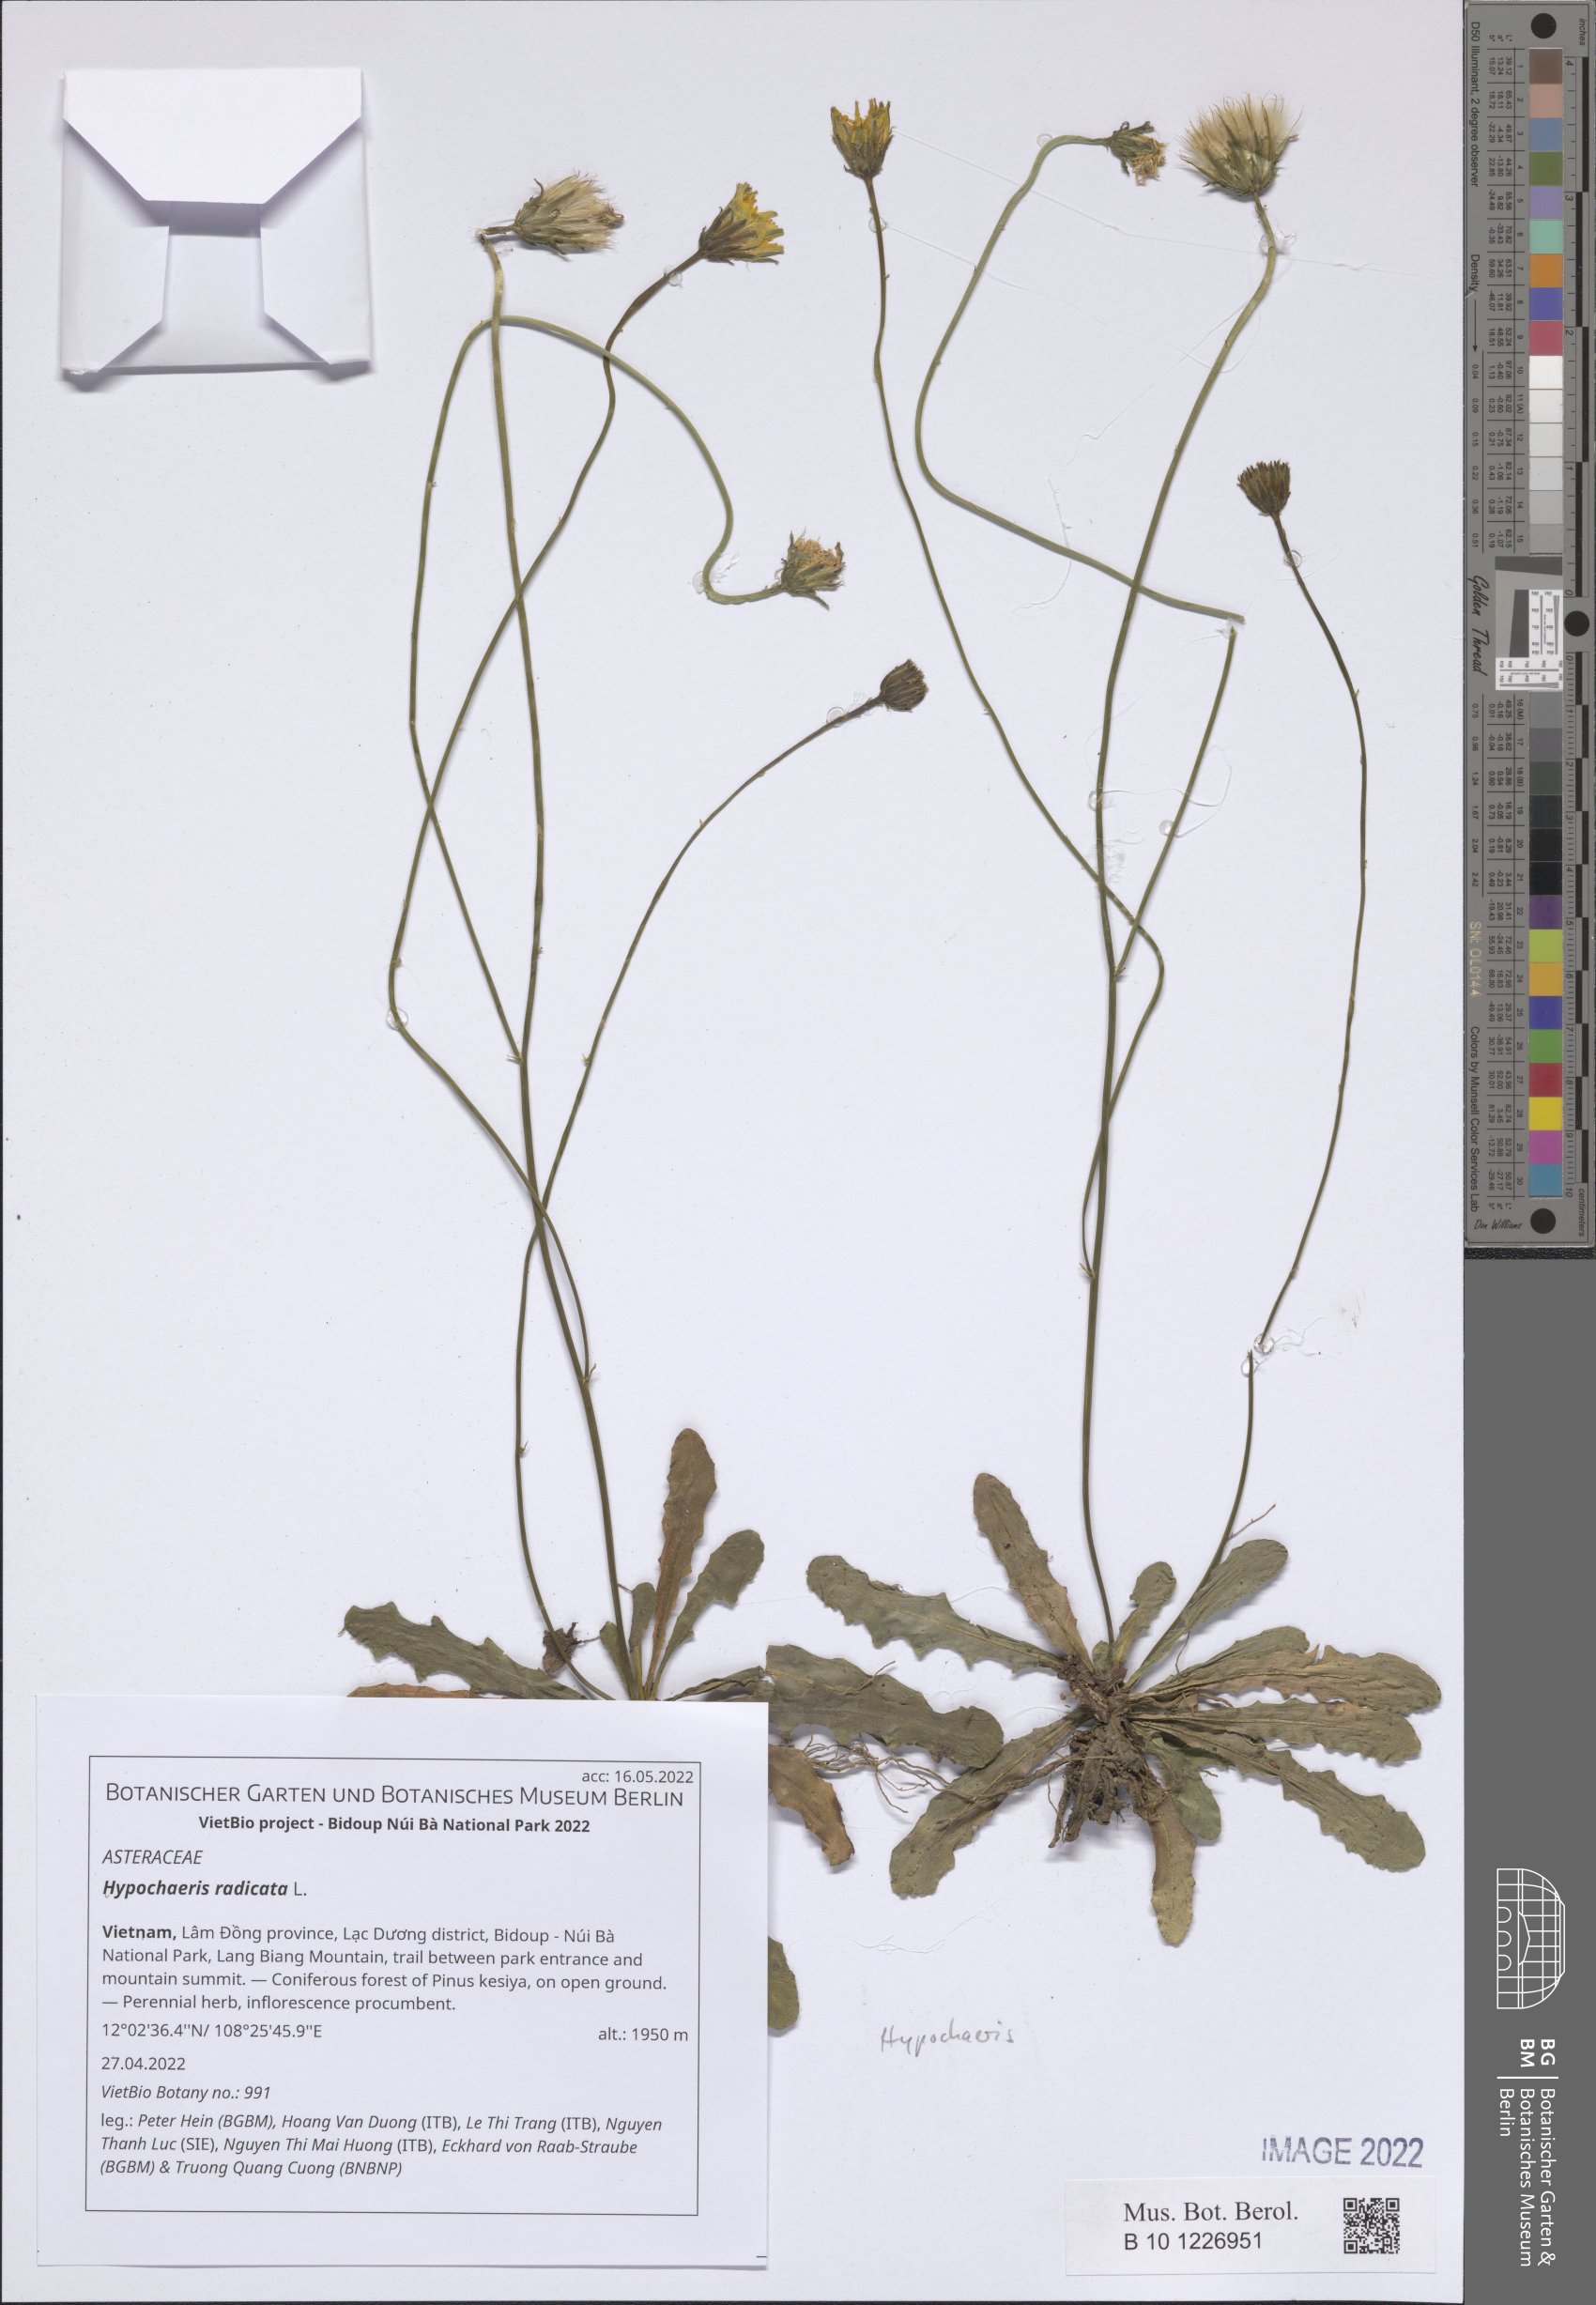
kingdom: Plantae
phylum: Tracheophyta
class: Magnoliopsida
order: Asterales
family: Asteraceae
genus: Hypochaeris
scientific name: Hypochaeris radicata
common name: Flatweed
